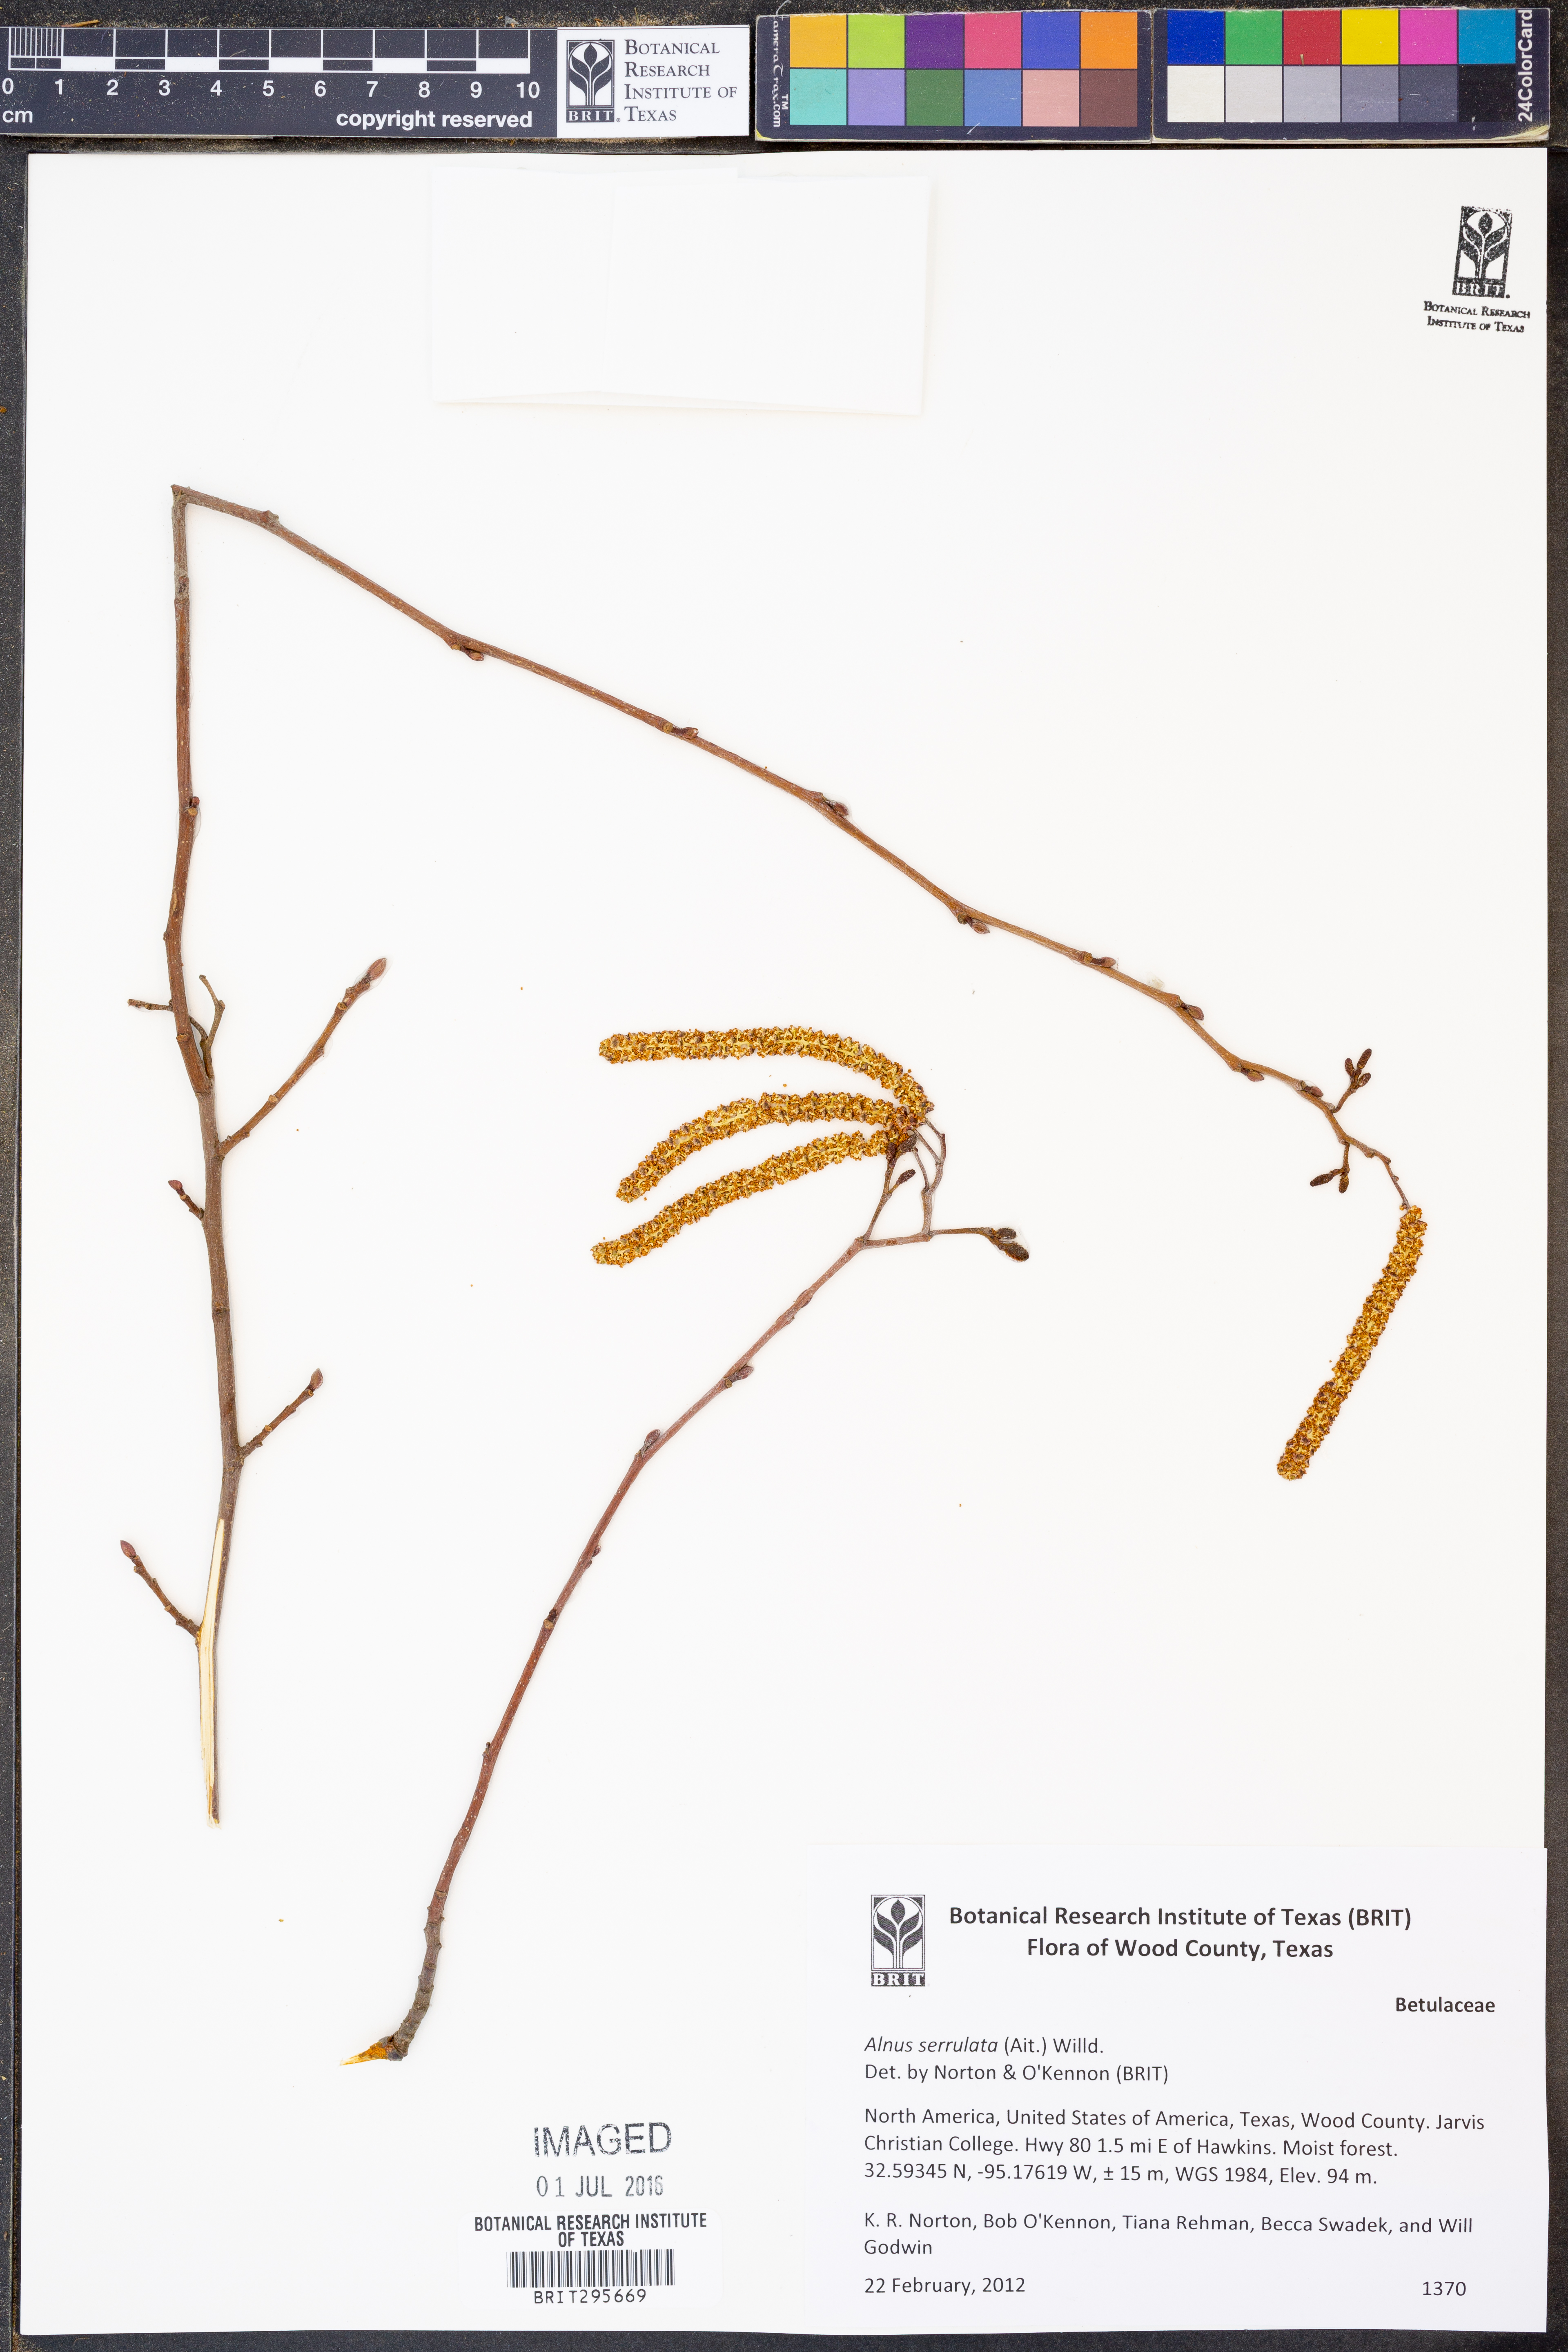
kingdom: Plantae
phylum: Tracheophyta
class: Magnoliopsida
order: Fagales
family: Betulaceae
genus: Alnus
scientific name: Alnus serrulata
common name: Hazel alder
